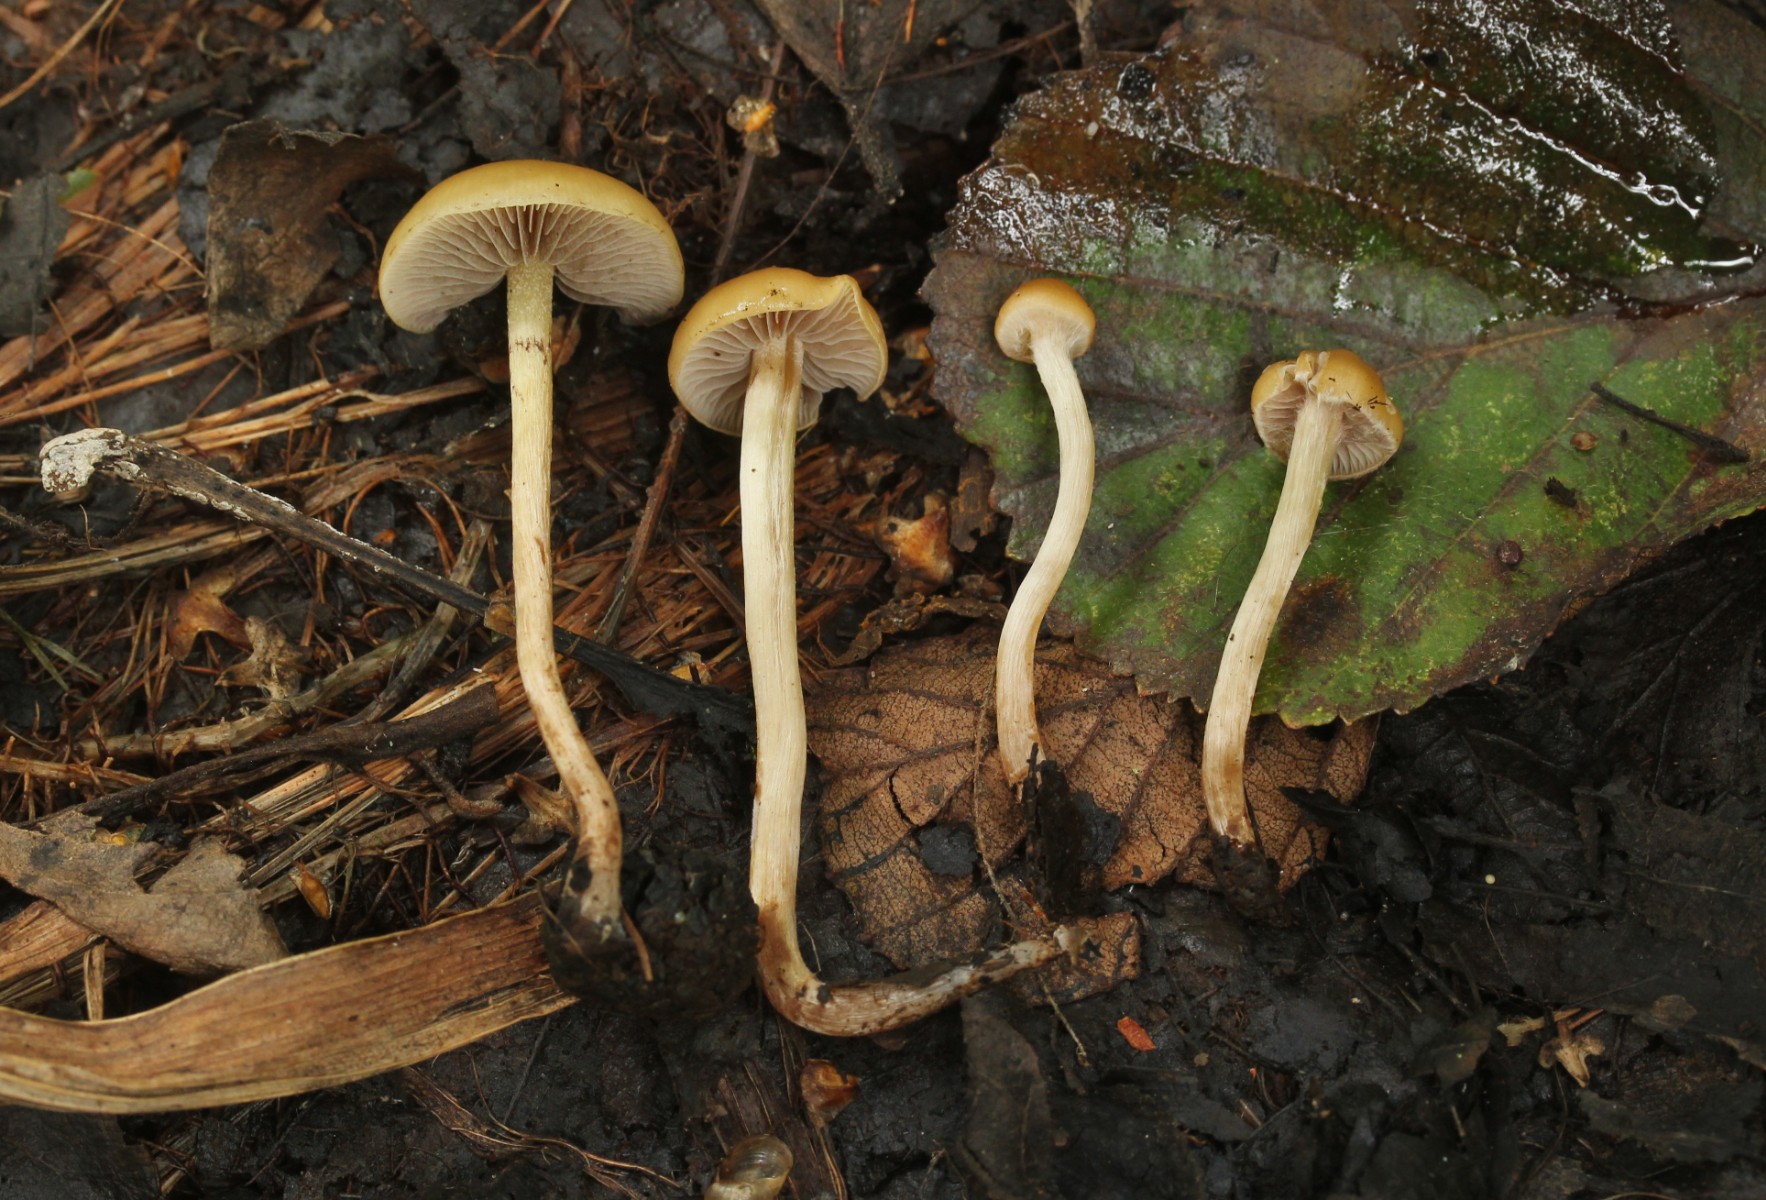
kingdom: Fungi
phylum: Basidiomycota
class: Agaricomycetes
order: Agaricales
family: Strophariaceae
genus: Hypholoma
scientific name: Hypholoma subericaeum
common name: eng-svovlhat
